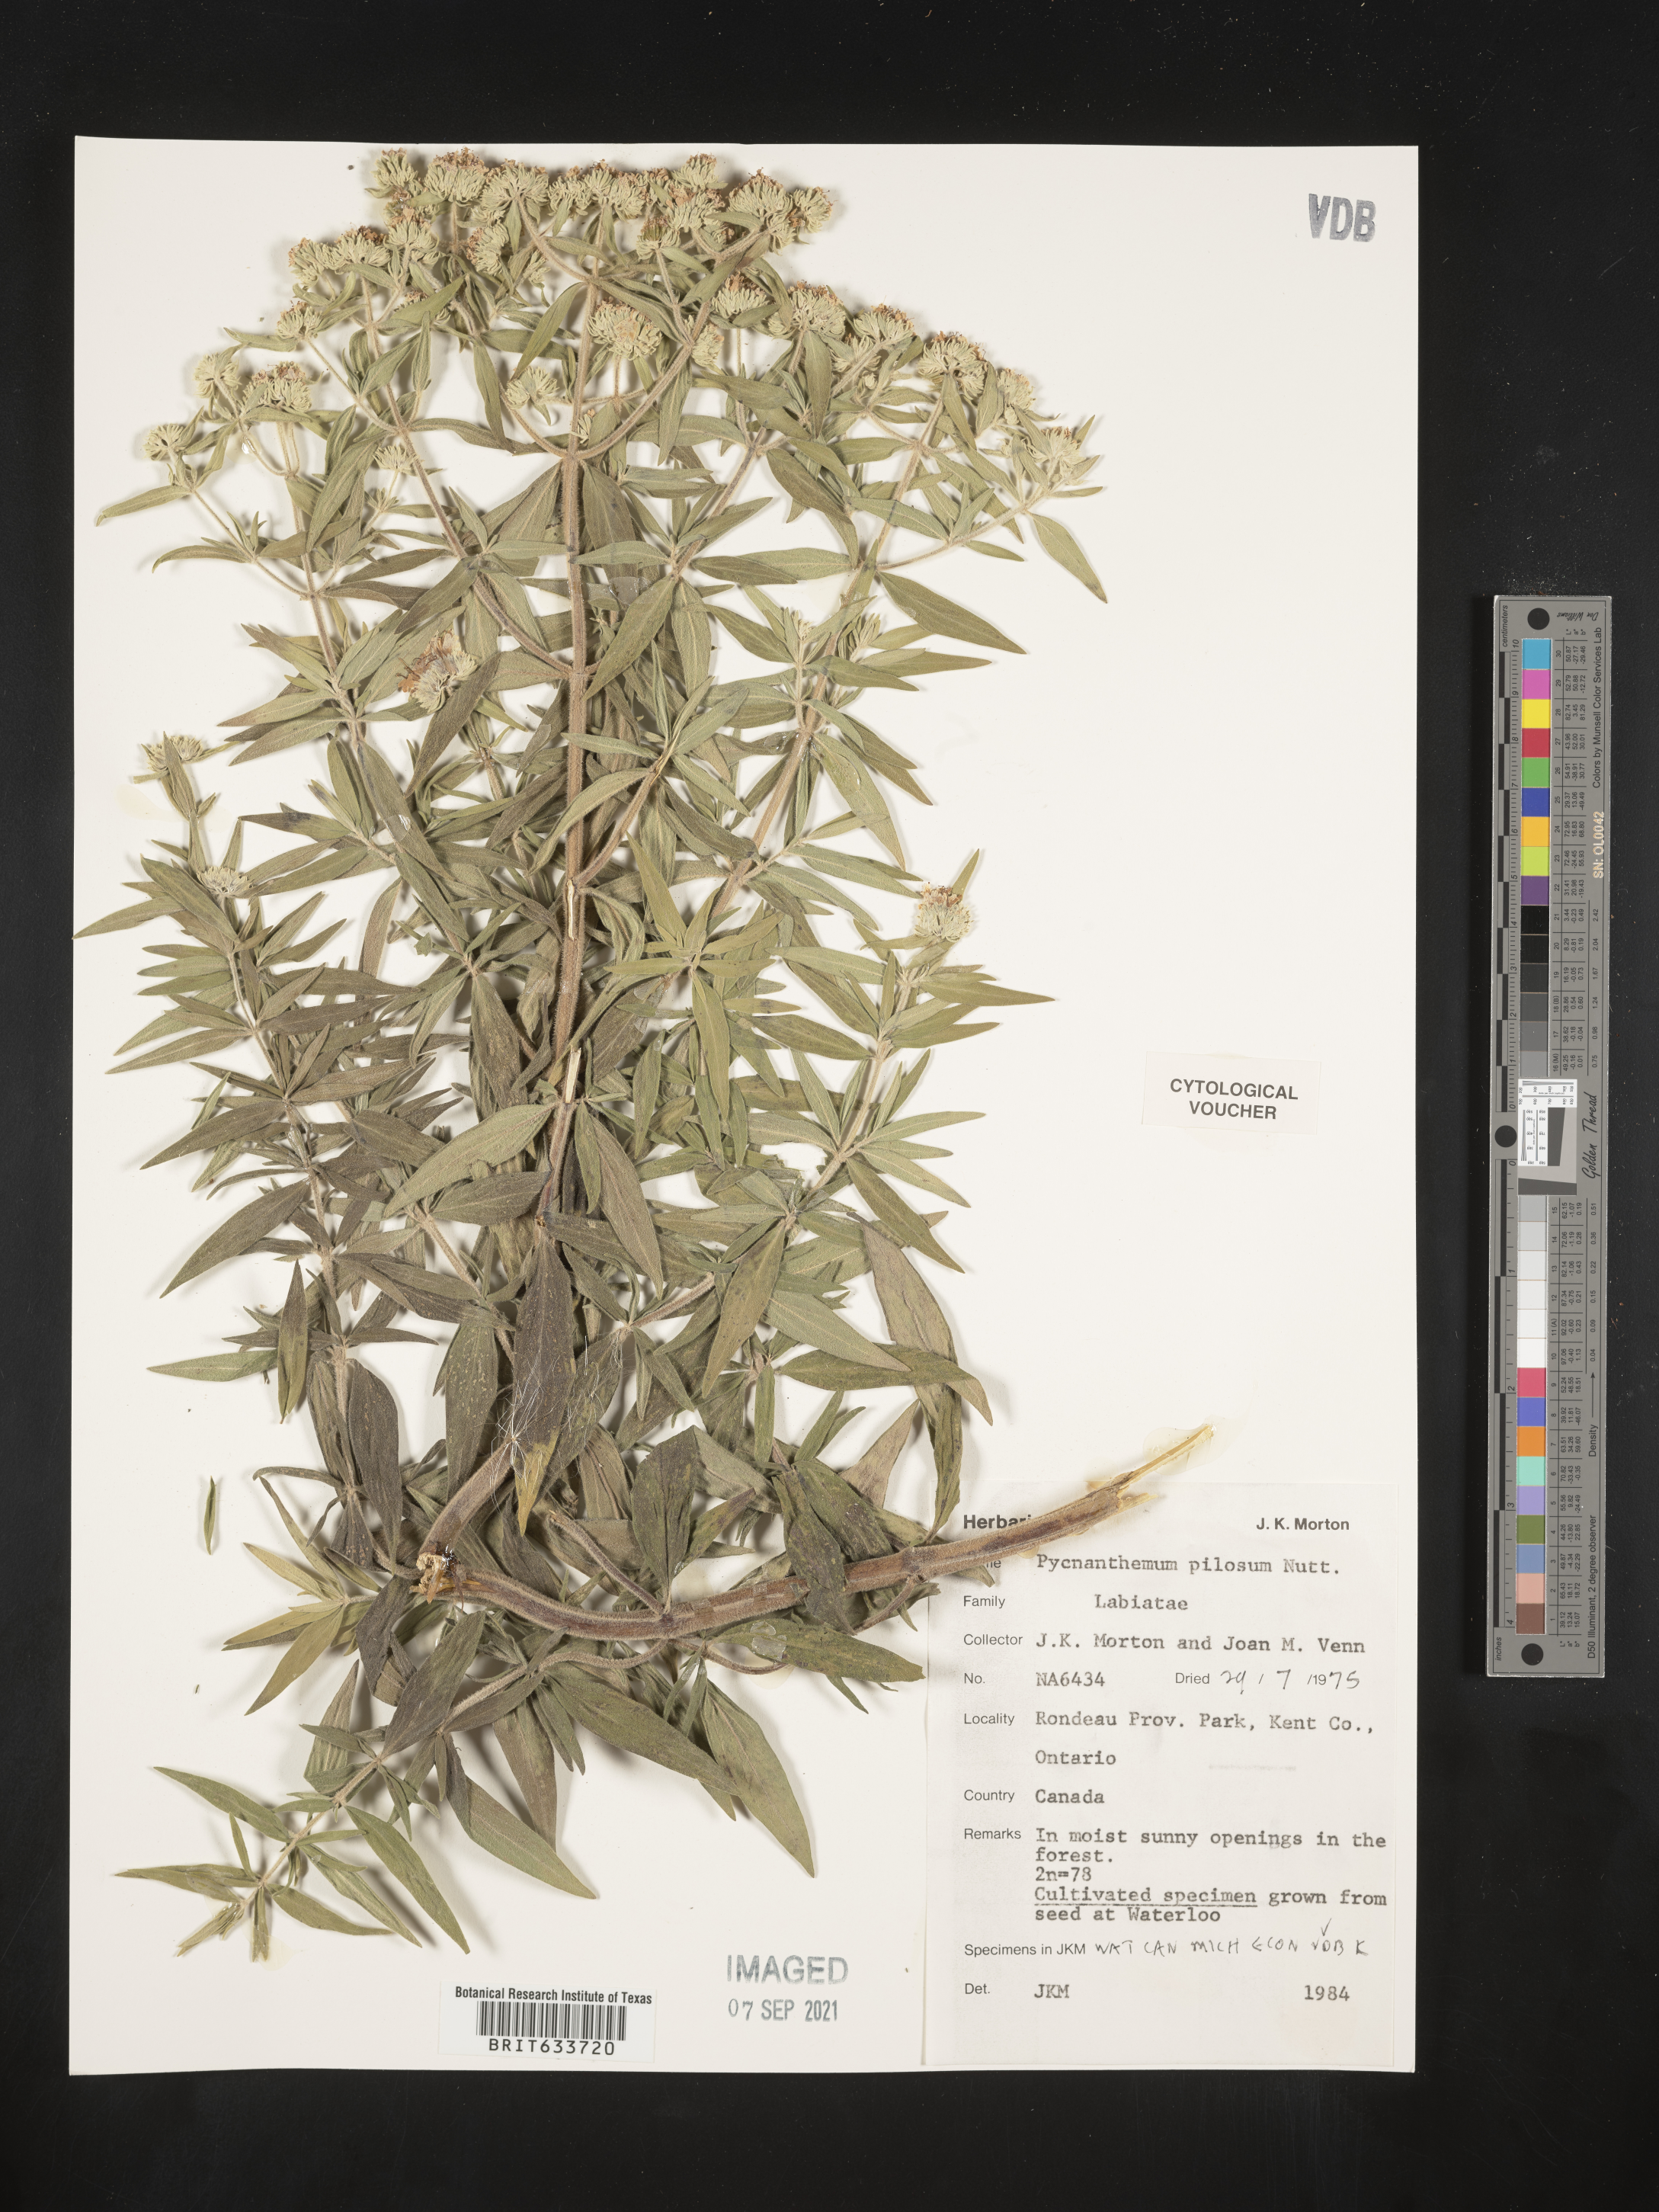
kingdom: Plantae
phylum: Tracheophyta
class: Magnoliopsida
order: Lamiales
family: Lamiaceae
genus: Pycnanthemum
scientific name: Pycnanthemum
